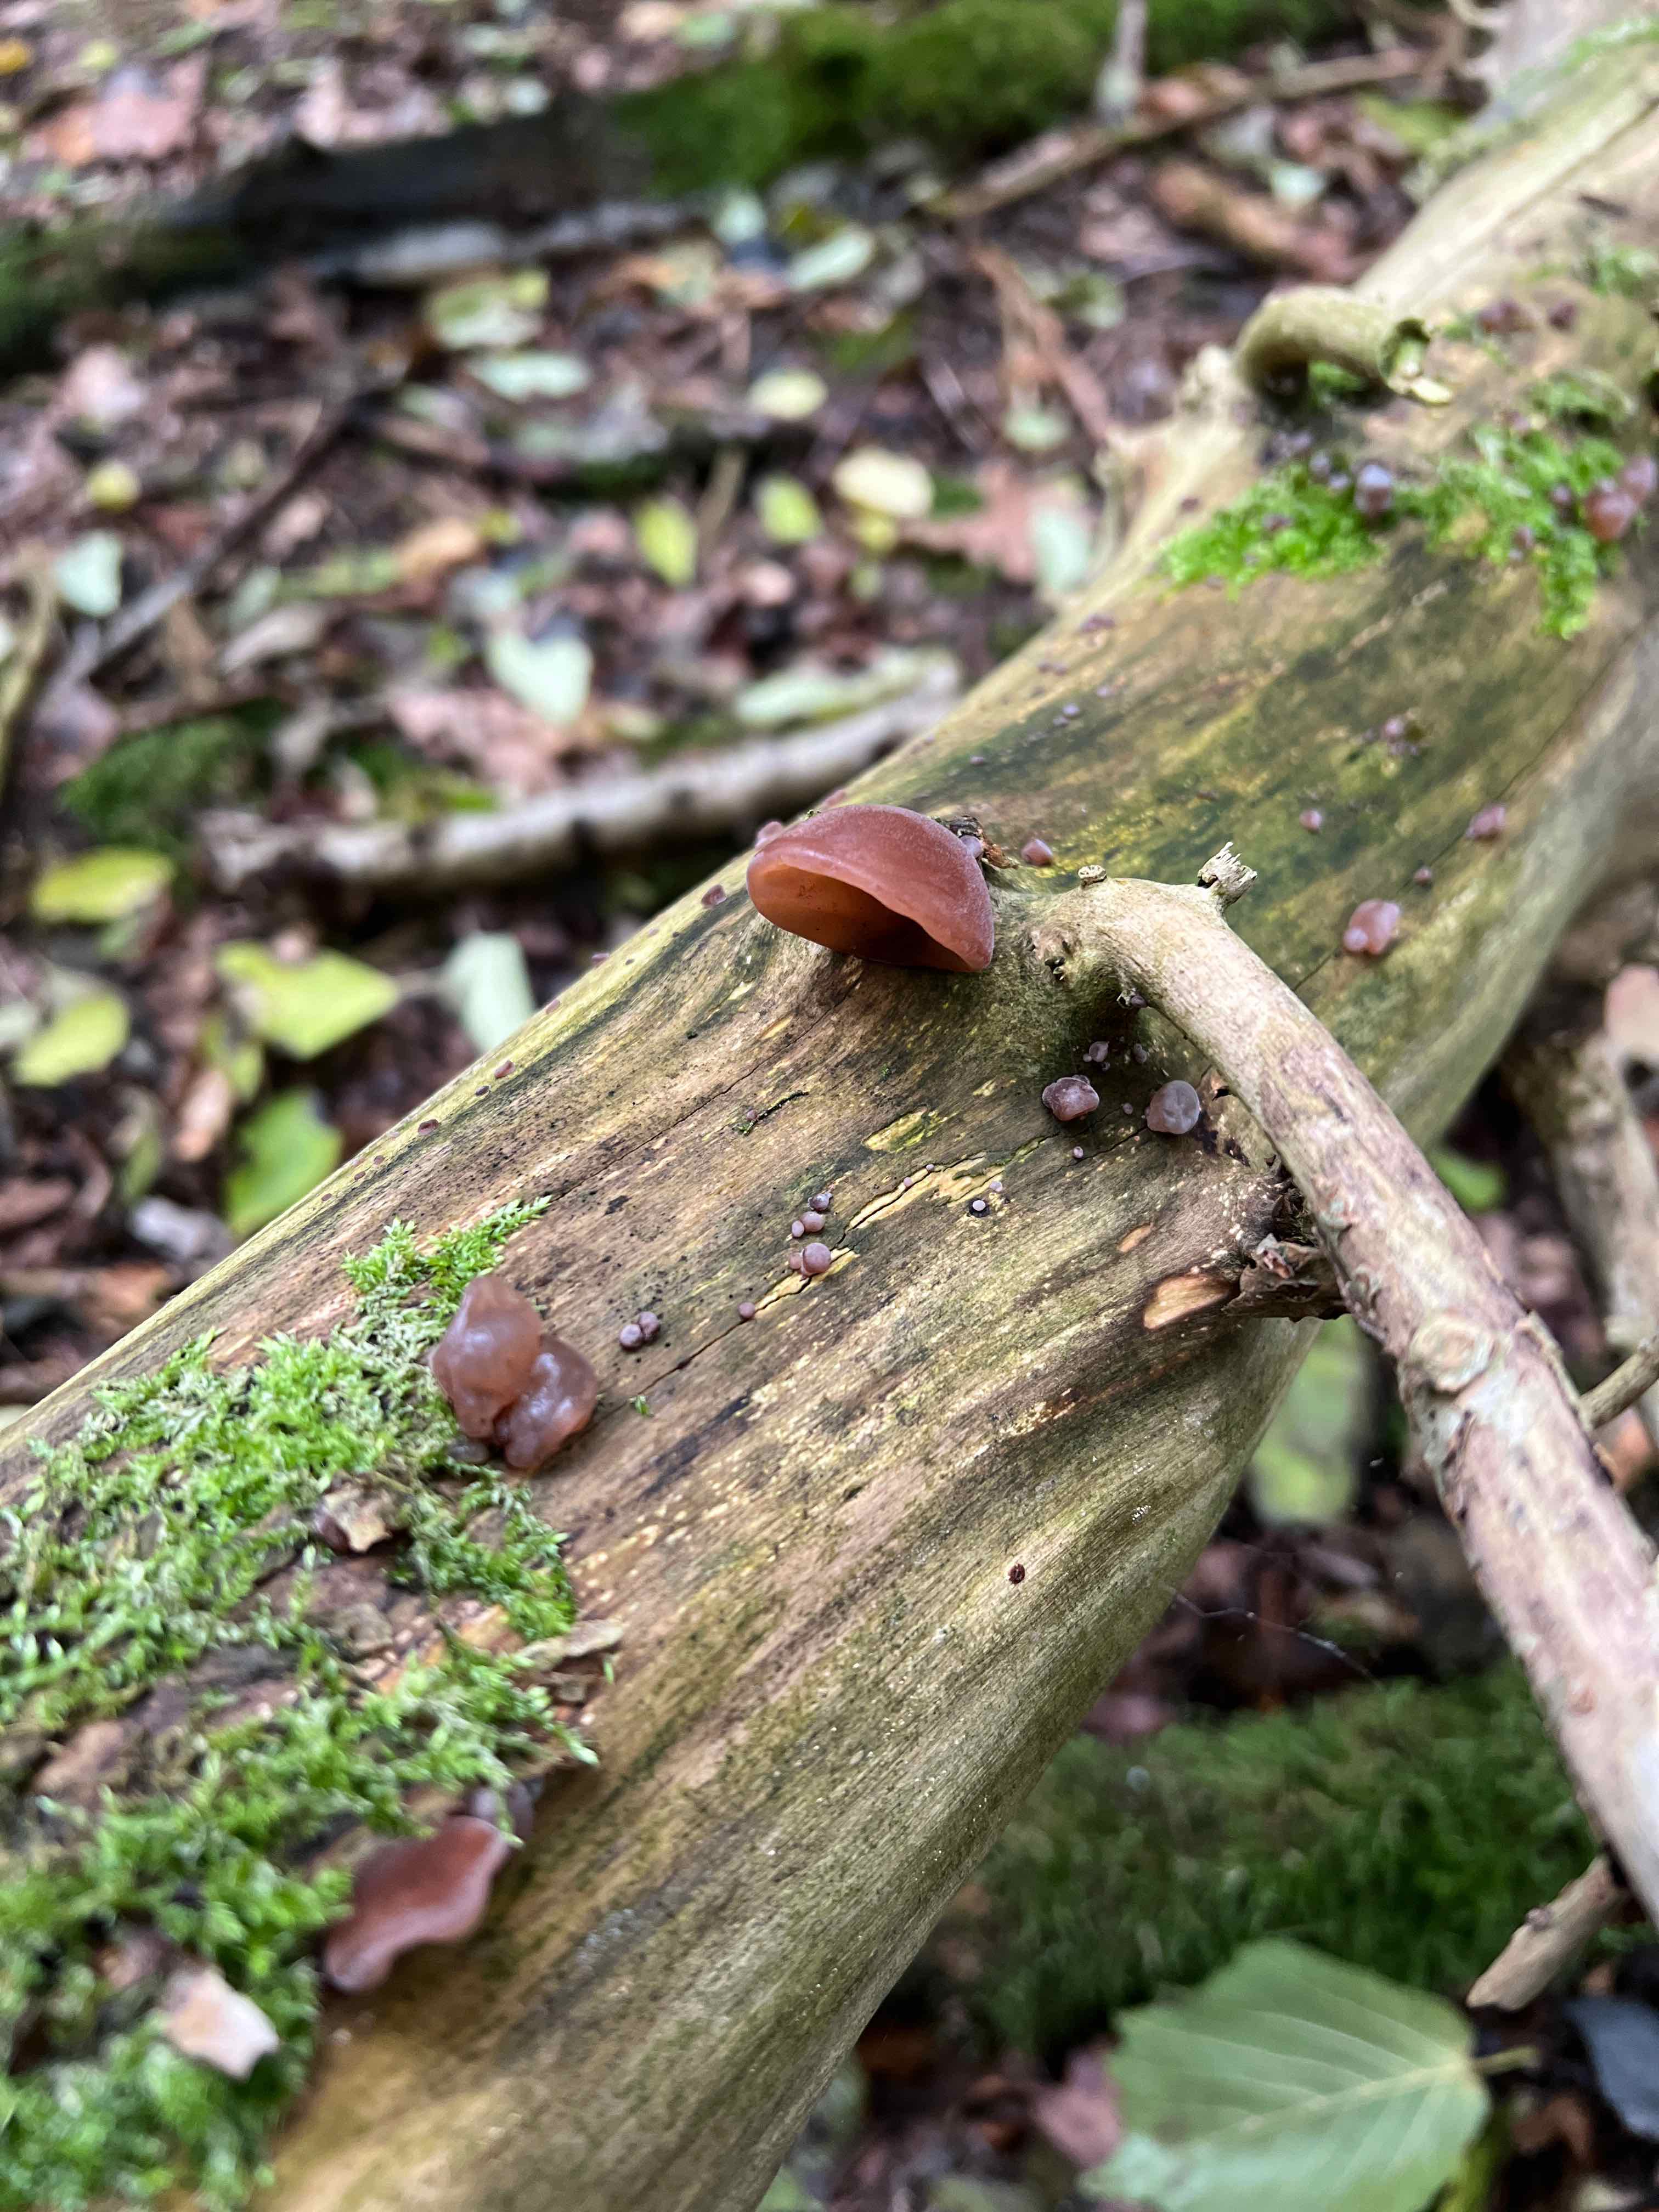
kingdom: Fungi
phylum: Basidiomycota
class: Agaricomycetes
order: Auriculariales
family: Auriculariaceae
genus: Auricularia
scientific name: Auricularia auricula-judae
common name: almindelig judasøre
